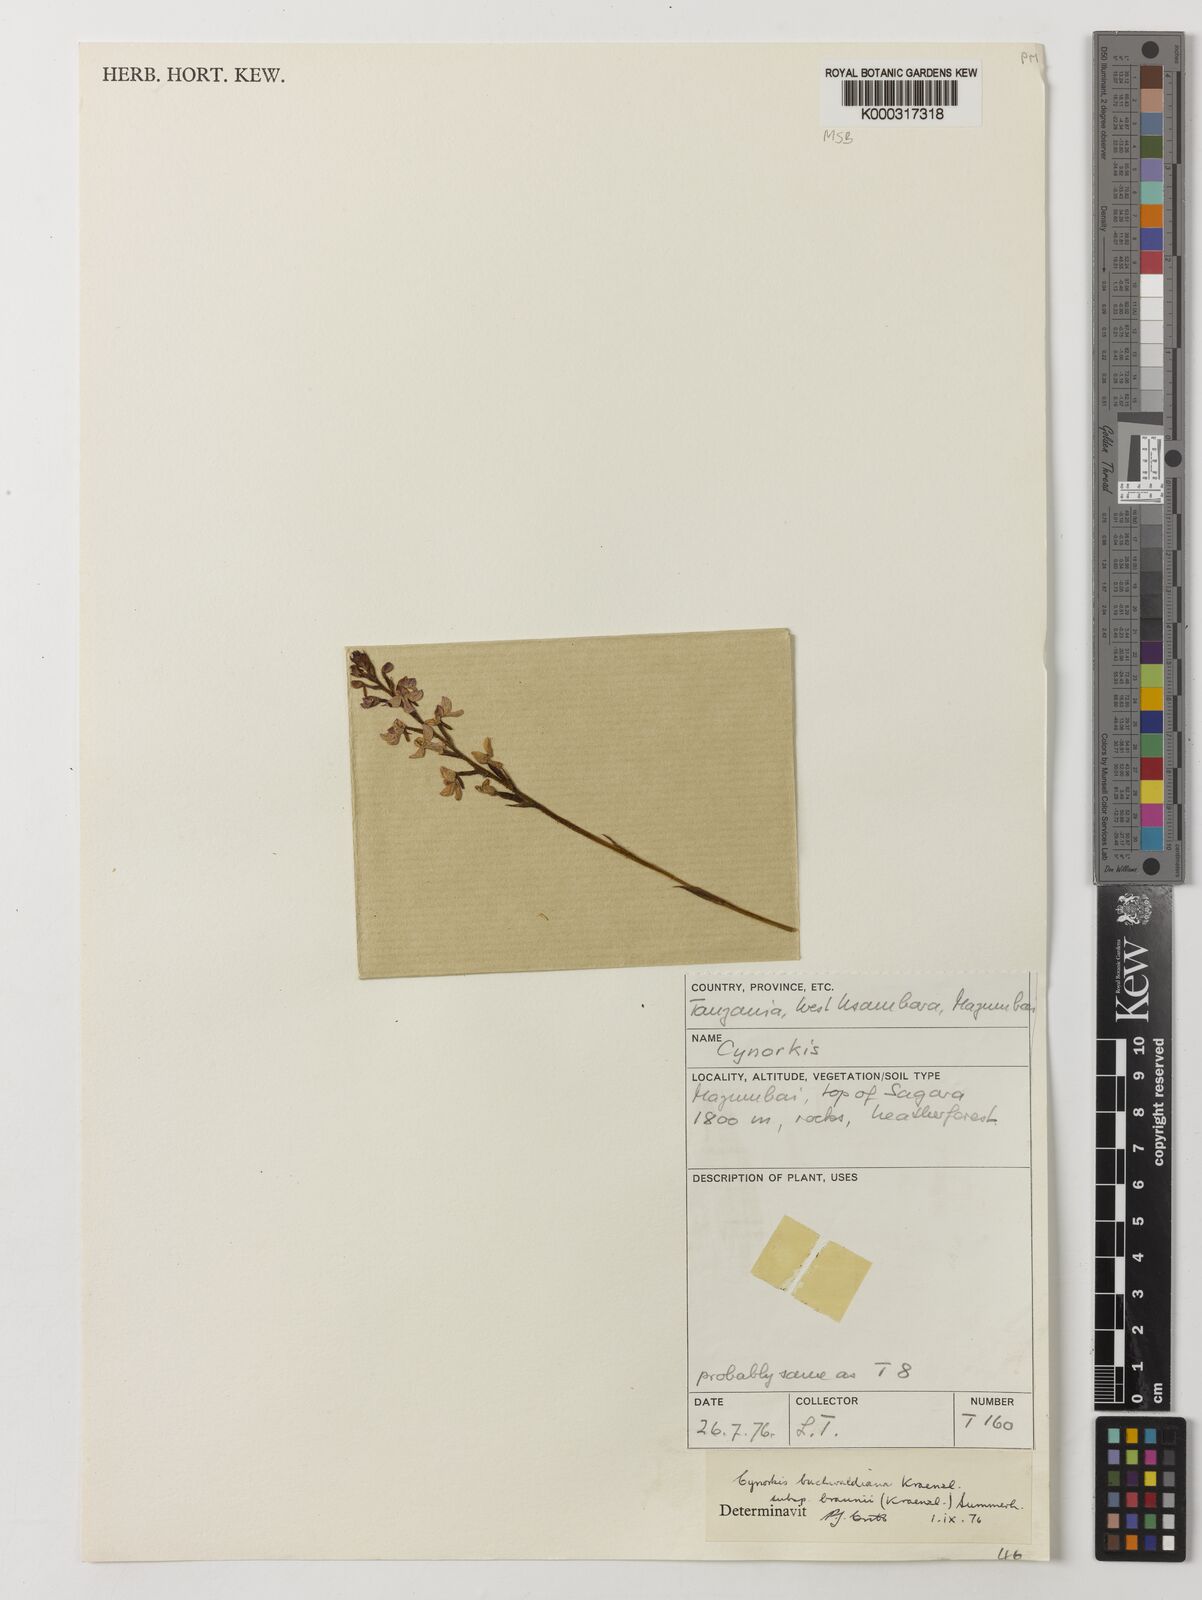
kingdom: Plantae
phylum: Tracheophyta
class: Liliopsida
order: Asparagales
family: Orchidaceae
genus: Cynorkis
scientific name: Cynorkis buchwaldiana
